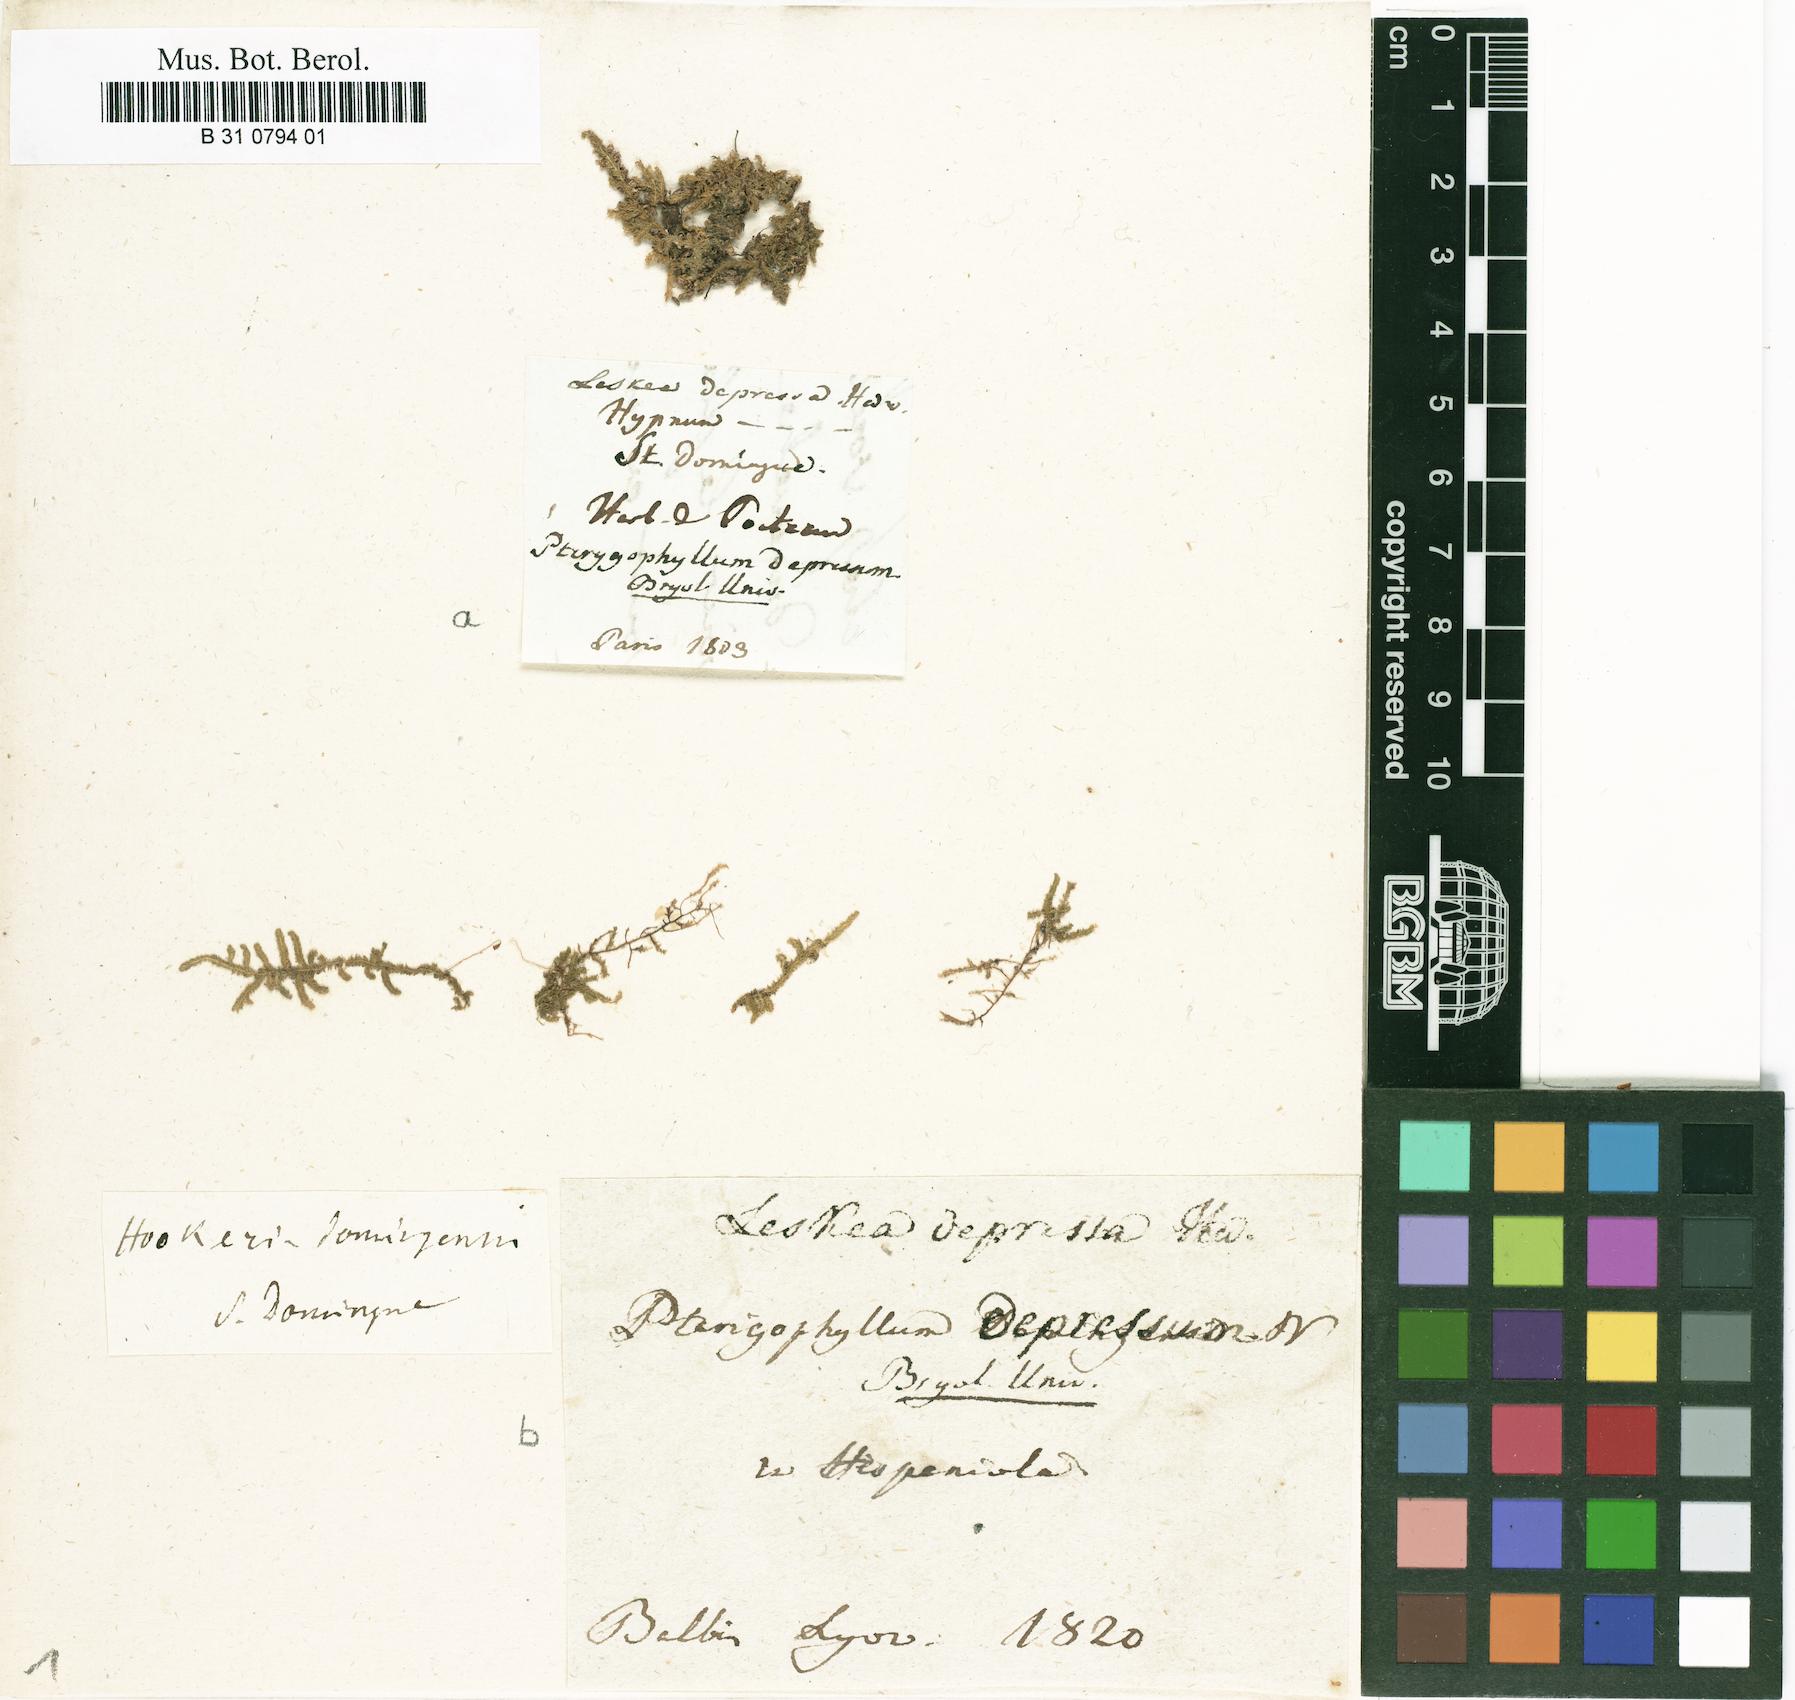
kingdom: Plantae
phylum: Bryophyta
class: Bryopsida
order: Hookeriales
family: Pilotrichaceae
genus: Callicostella
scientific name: Callicostella depressa
